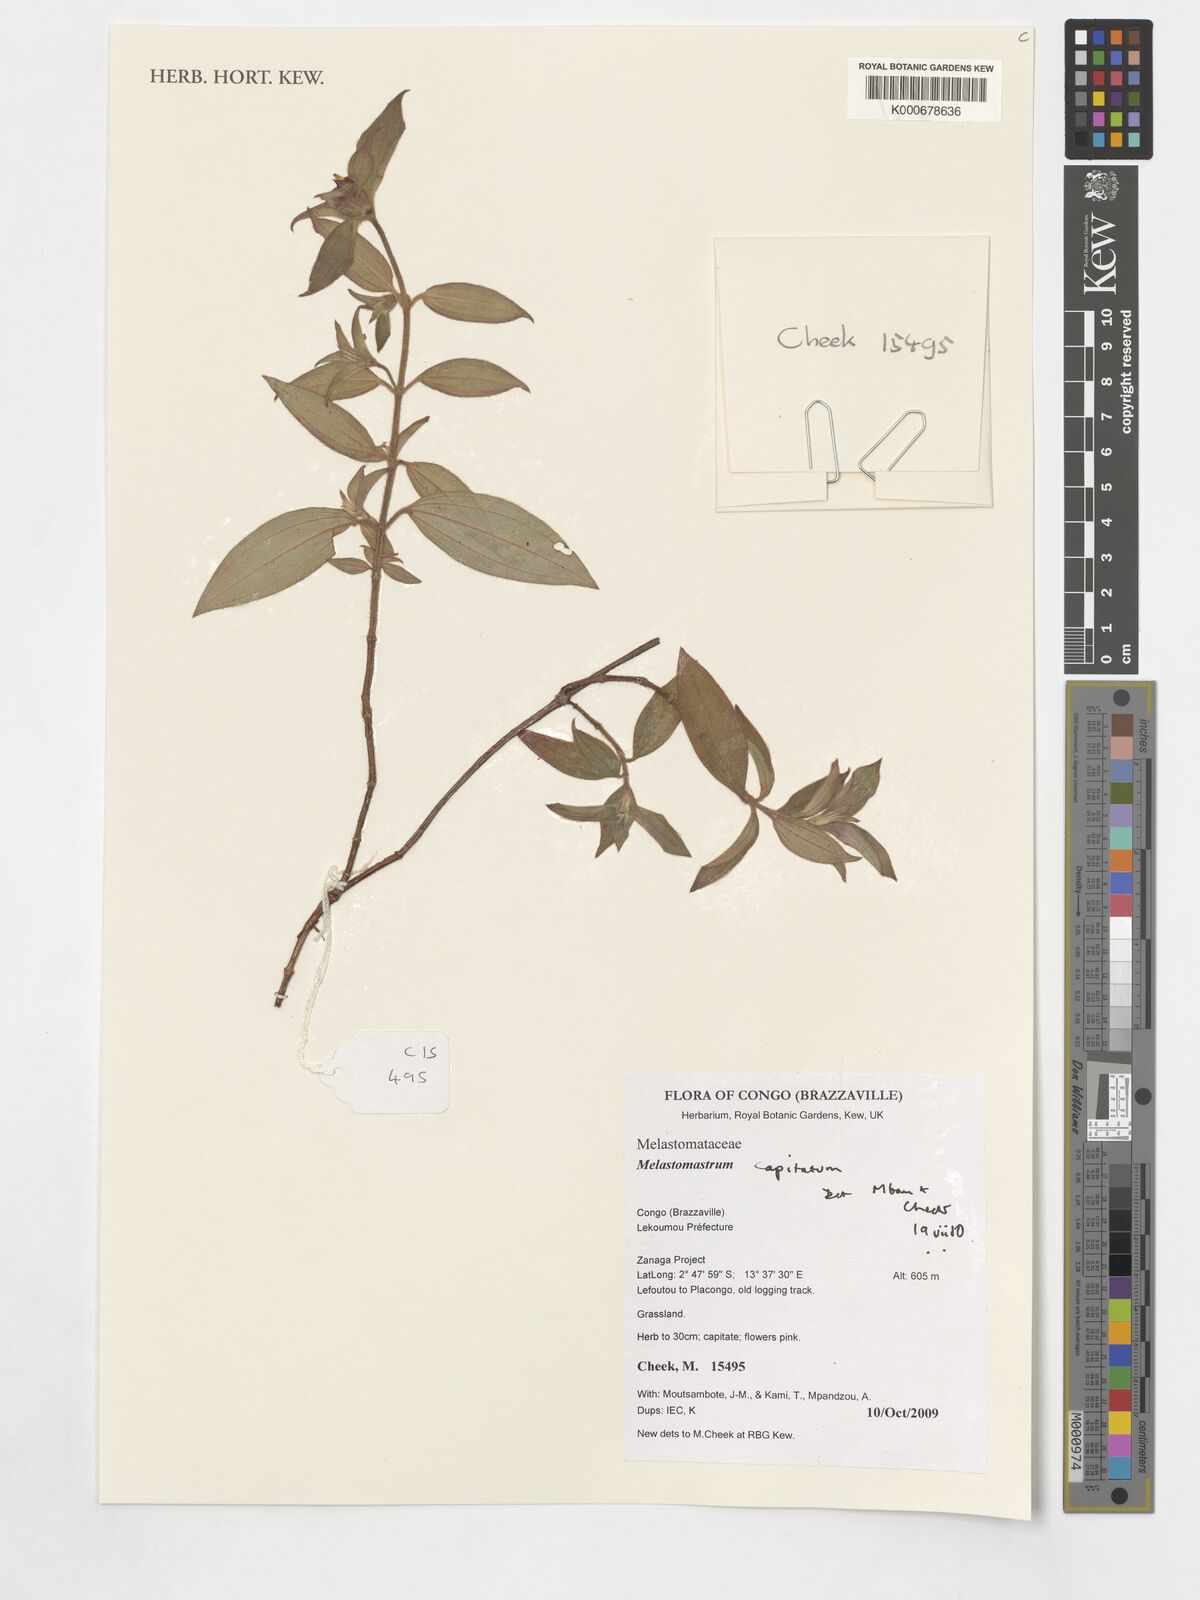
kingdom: Plantae
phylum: Tracheophyta
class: Magnoliopsida
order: Myrtales
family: Melastomataceae
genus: Melastomastrum
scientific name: Melastomastrum capitatum
